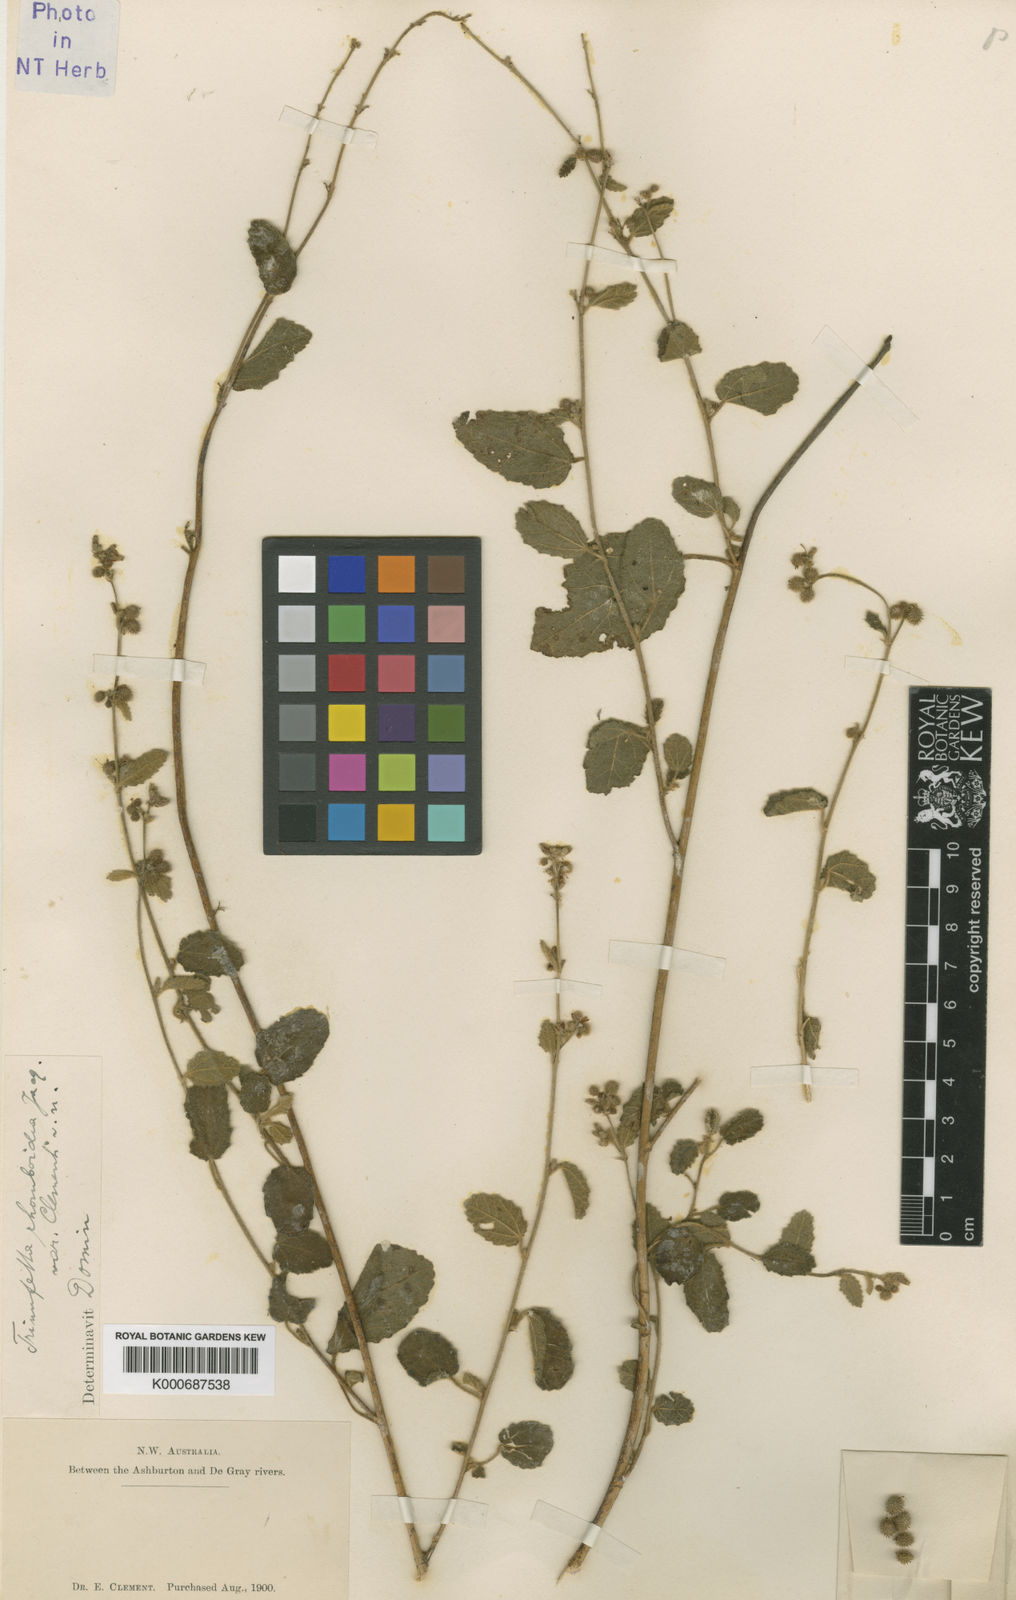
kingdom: Plantae
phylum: Tracheophyta
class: Magnoliopsida
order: Malvales
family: Malvaceae
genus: Triumfetta
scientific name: Triumfetta rhomboidea
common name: Diamond burbark
